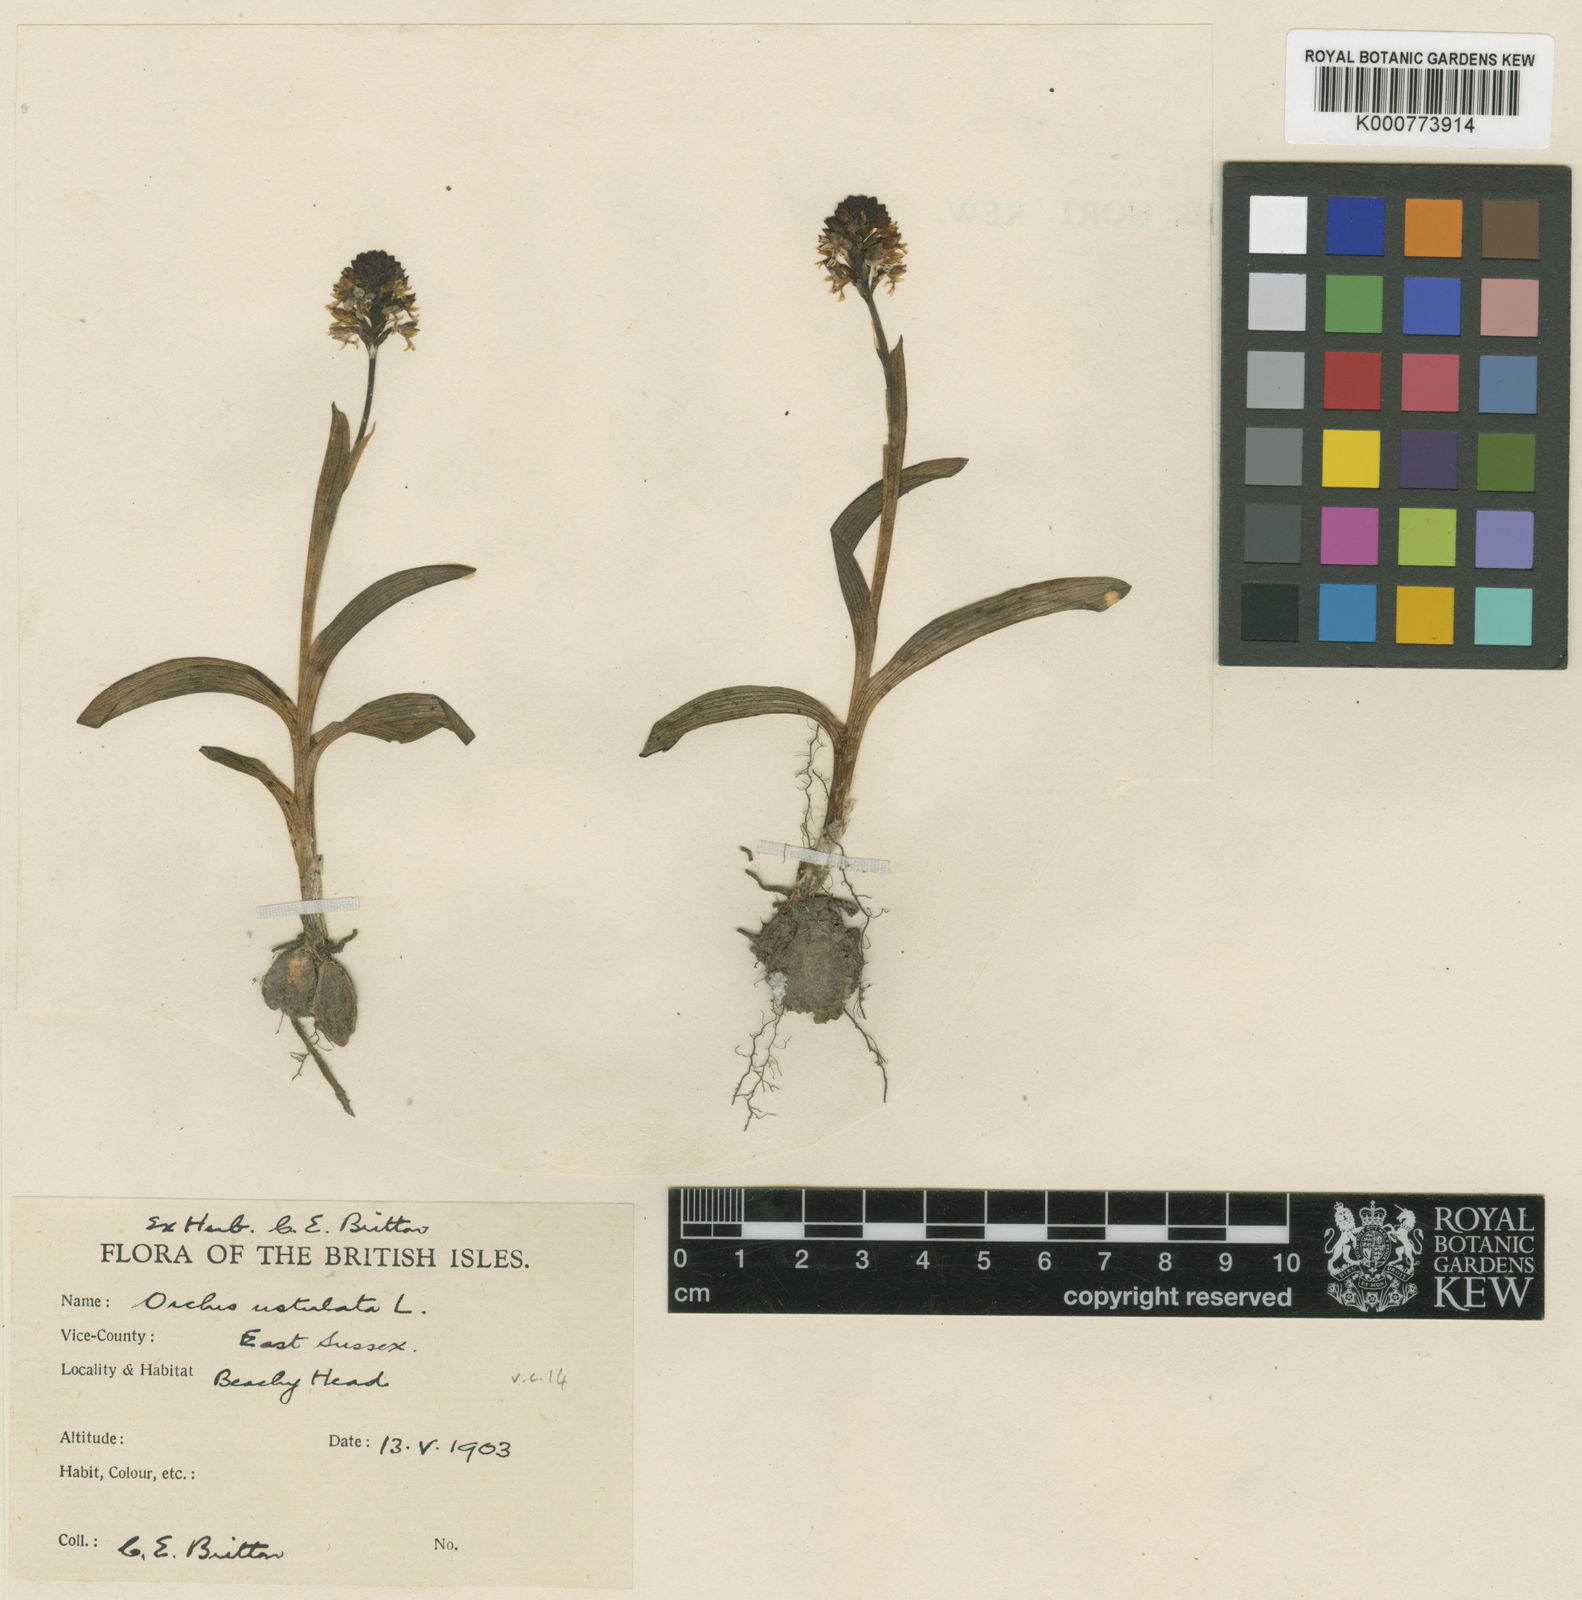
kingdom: Plantae
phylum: Tracheophyta
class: Liliopsida
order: Asparagales
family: Orchidaceae
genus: Neotinea
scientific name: Neotinea ustulata
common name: Burnt orchid
